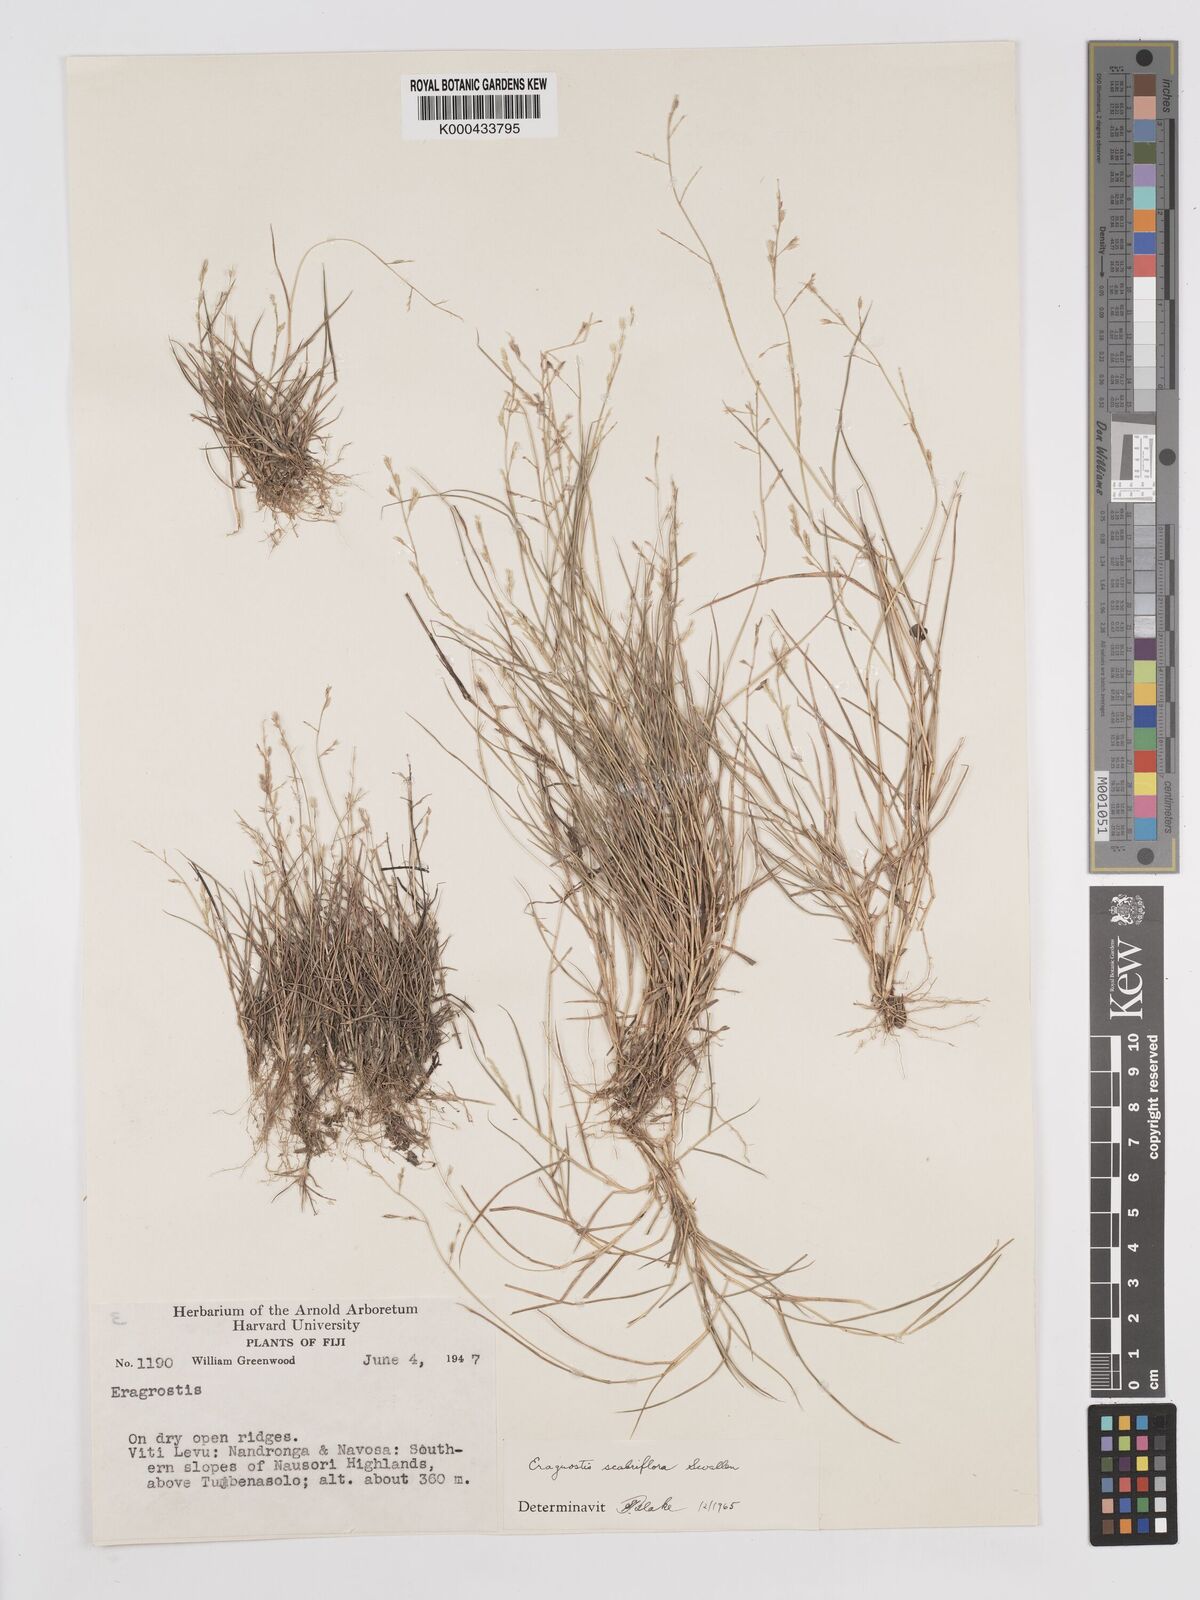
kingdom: Plantae
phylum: Tracheophyta
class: Liliopsida
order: Poales
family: Poaceae
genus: Eragrostis
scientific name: Eragrostis scabriflora
